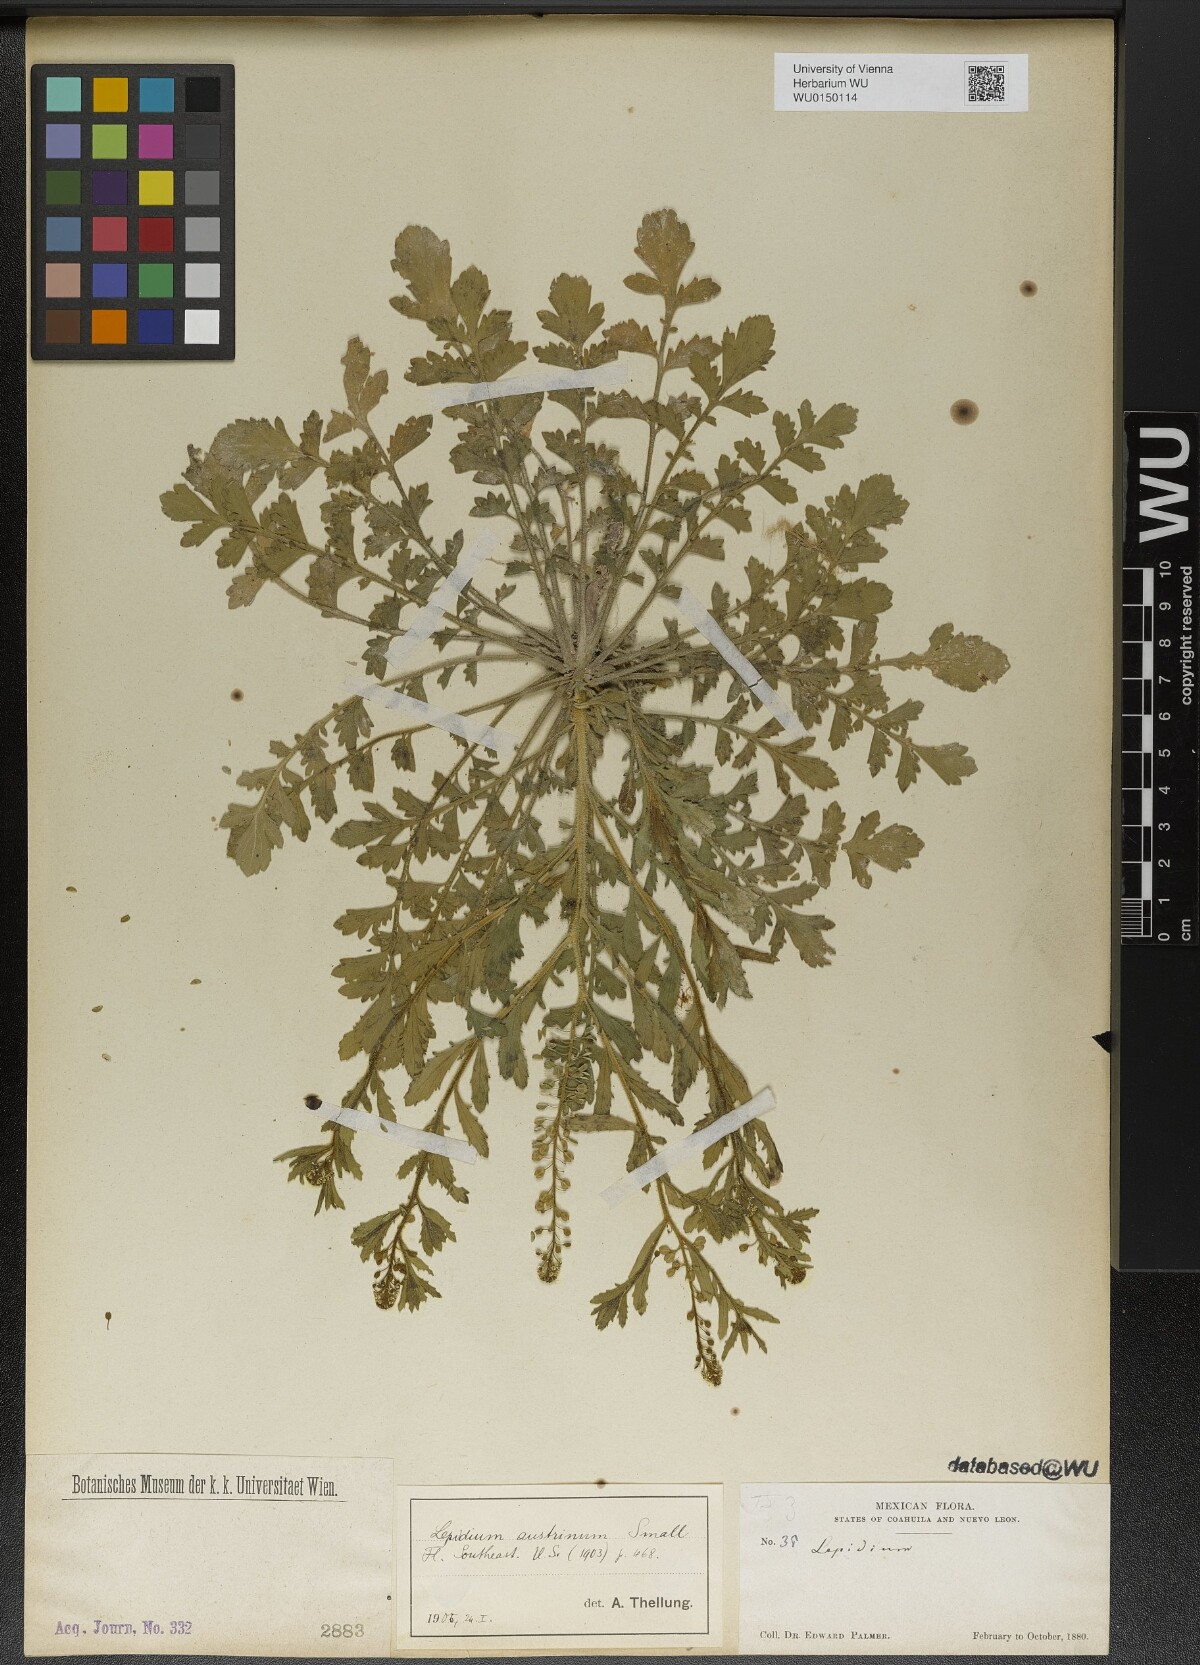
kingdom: Plantae
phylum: Tracheophyta
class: Magnoliopsida
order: Brassicales
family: Brassicaceae
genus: Lepidium
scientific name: Lepidium austrinum
